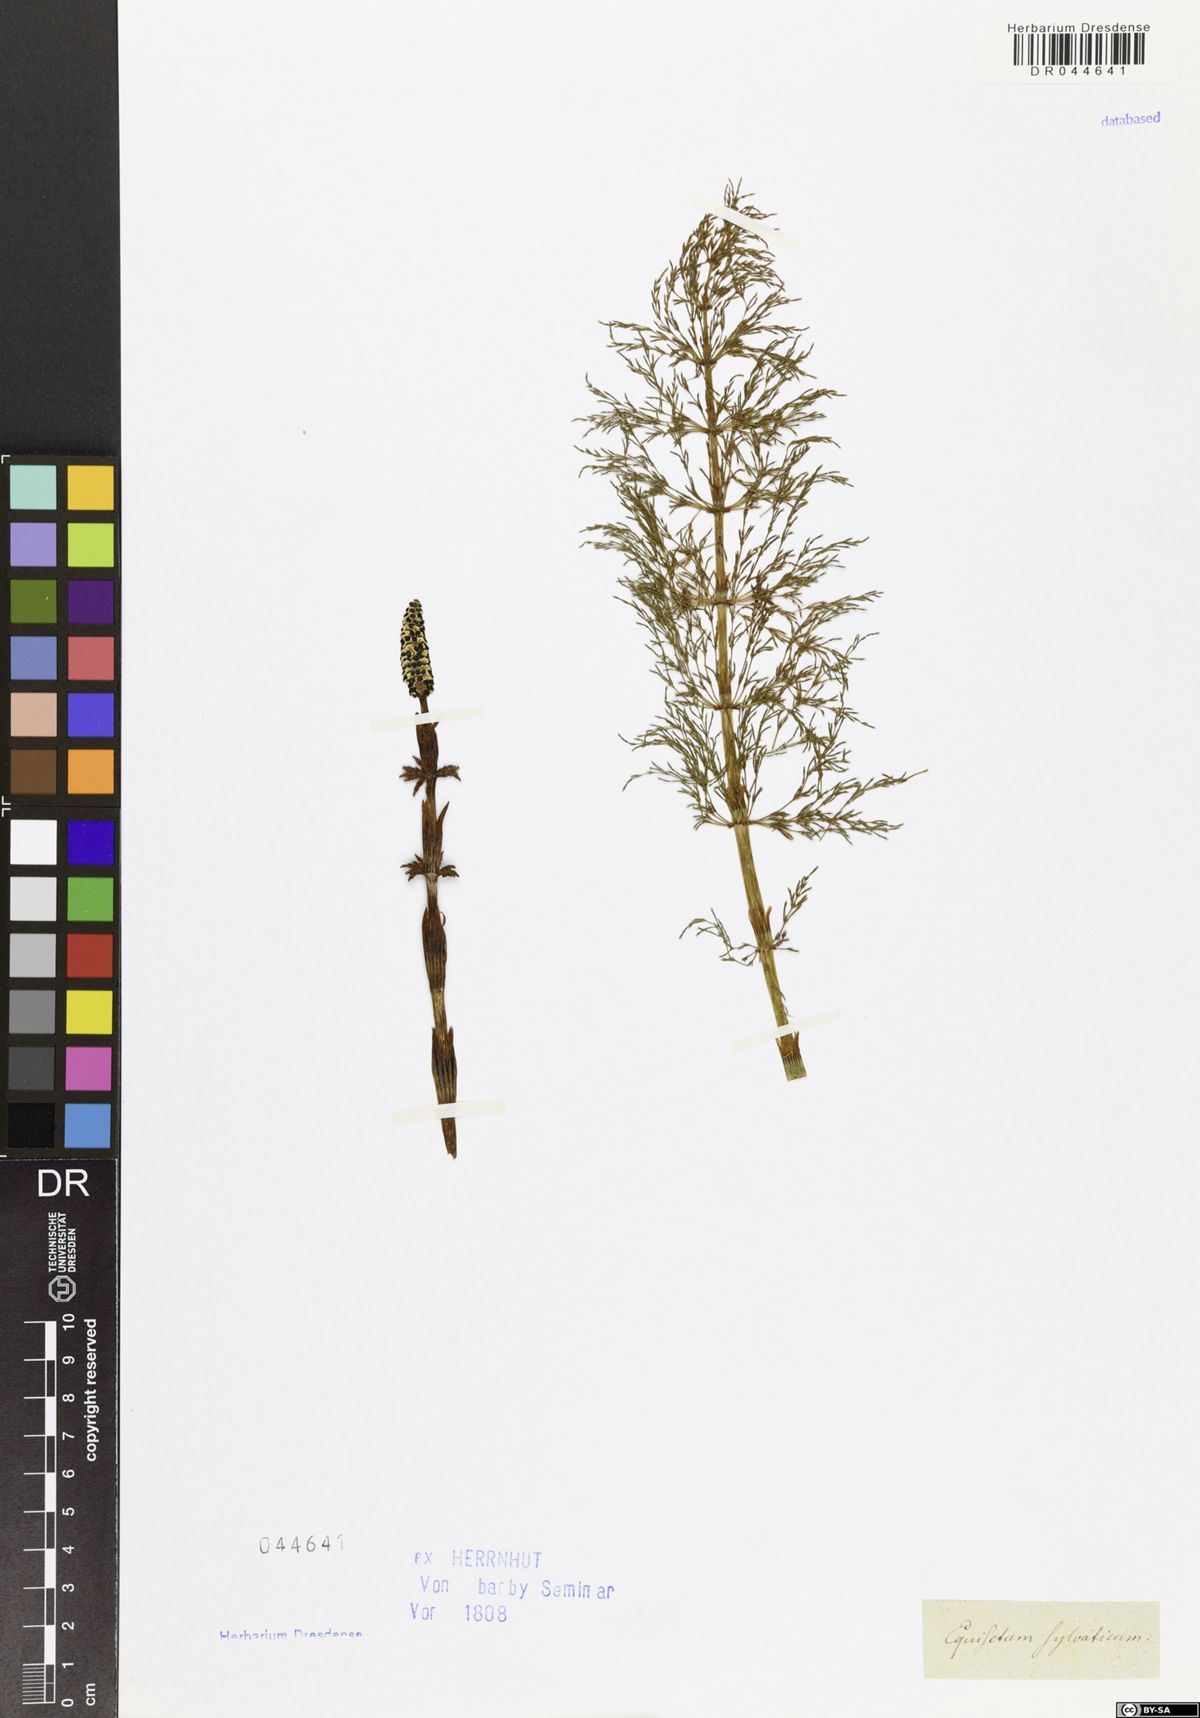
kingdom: Plantae
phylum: Tracheophyta
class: Polypodiopsida
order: Equisetales
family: Equisetaceae
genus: Equisetum
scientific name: Equisetum sylvaticum
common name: Wood horsetail
